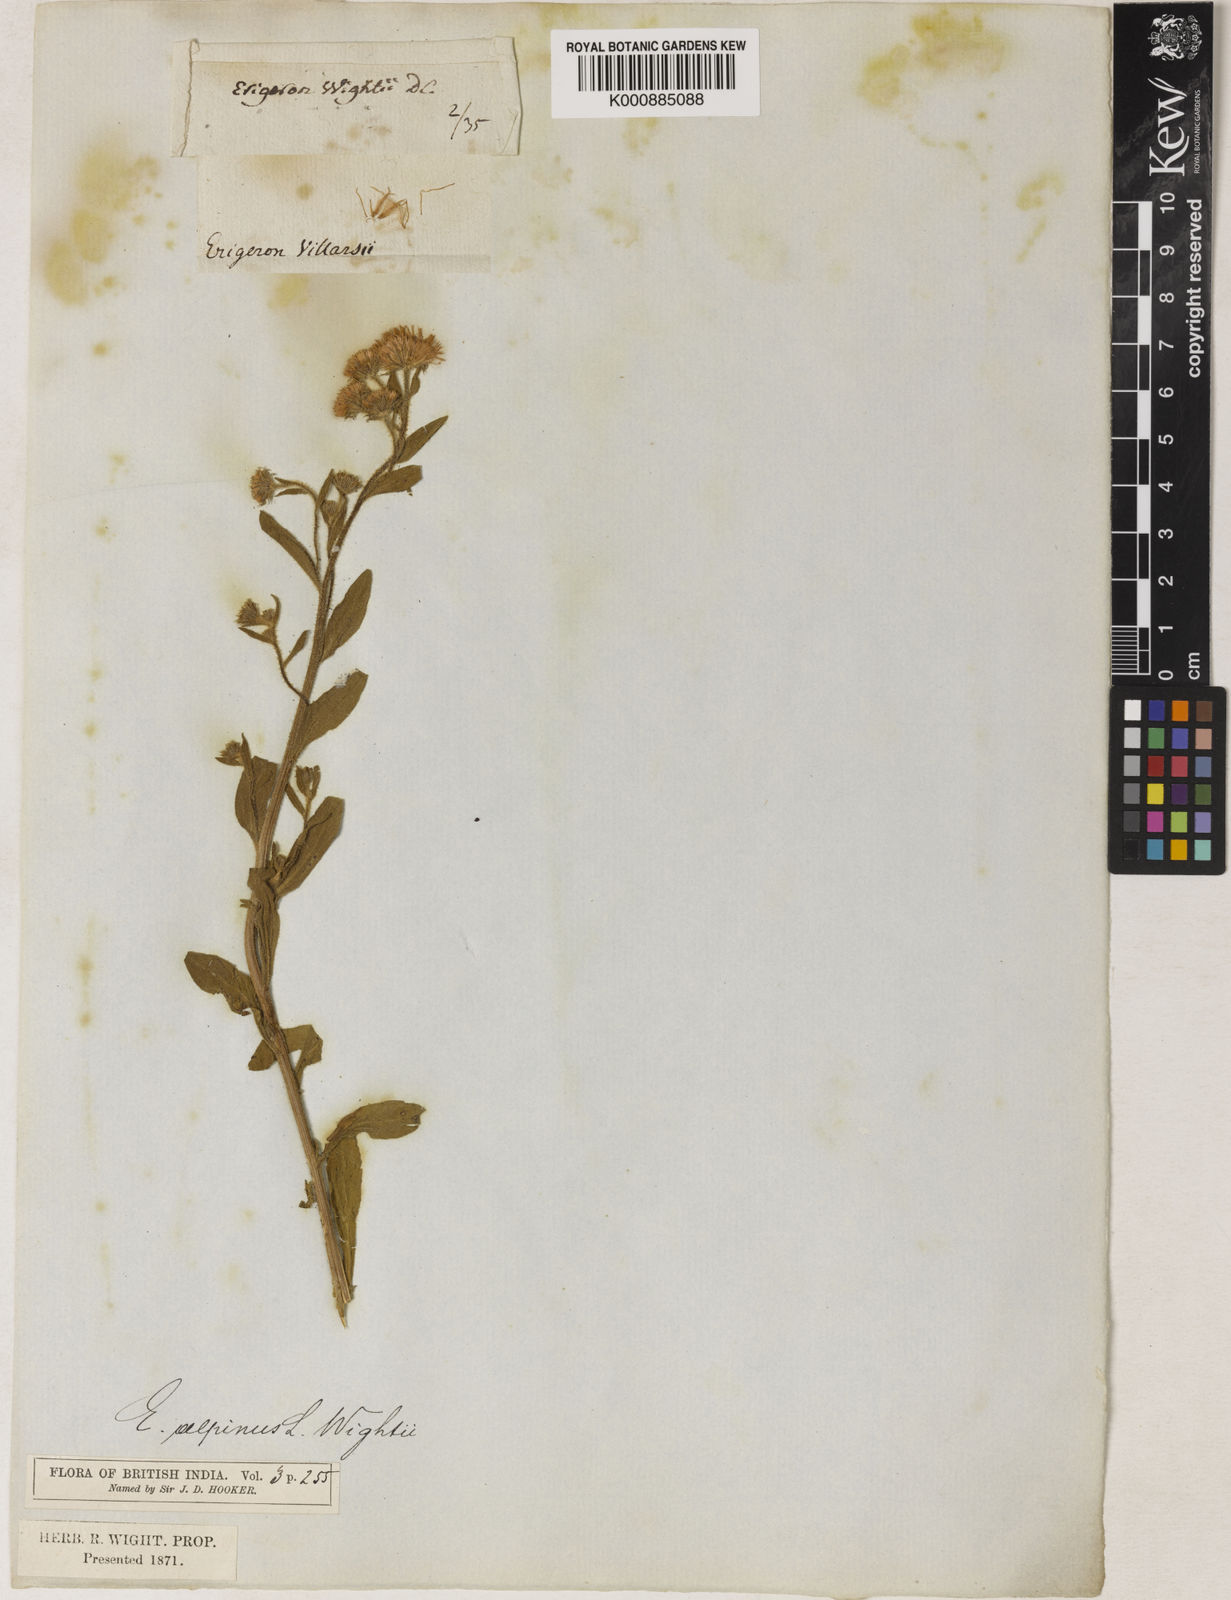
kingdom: Plantae
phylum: Tracheophyta
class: Magnoliopsida
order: Asterales
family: Asteraceae
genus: Erigeron
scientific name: Erigeron alpinus
